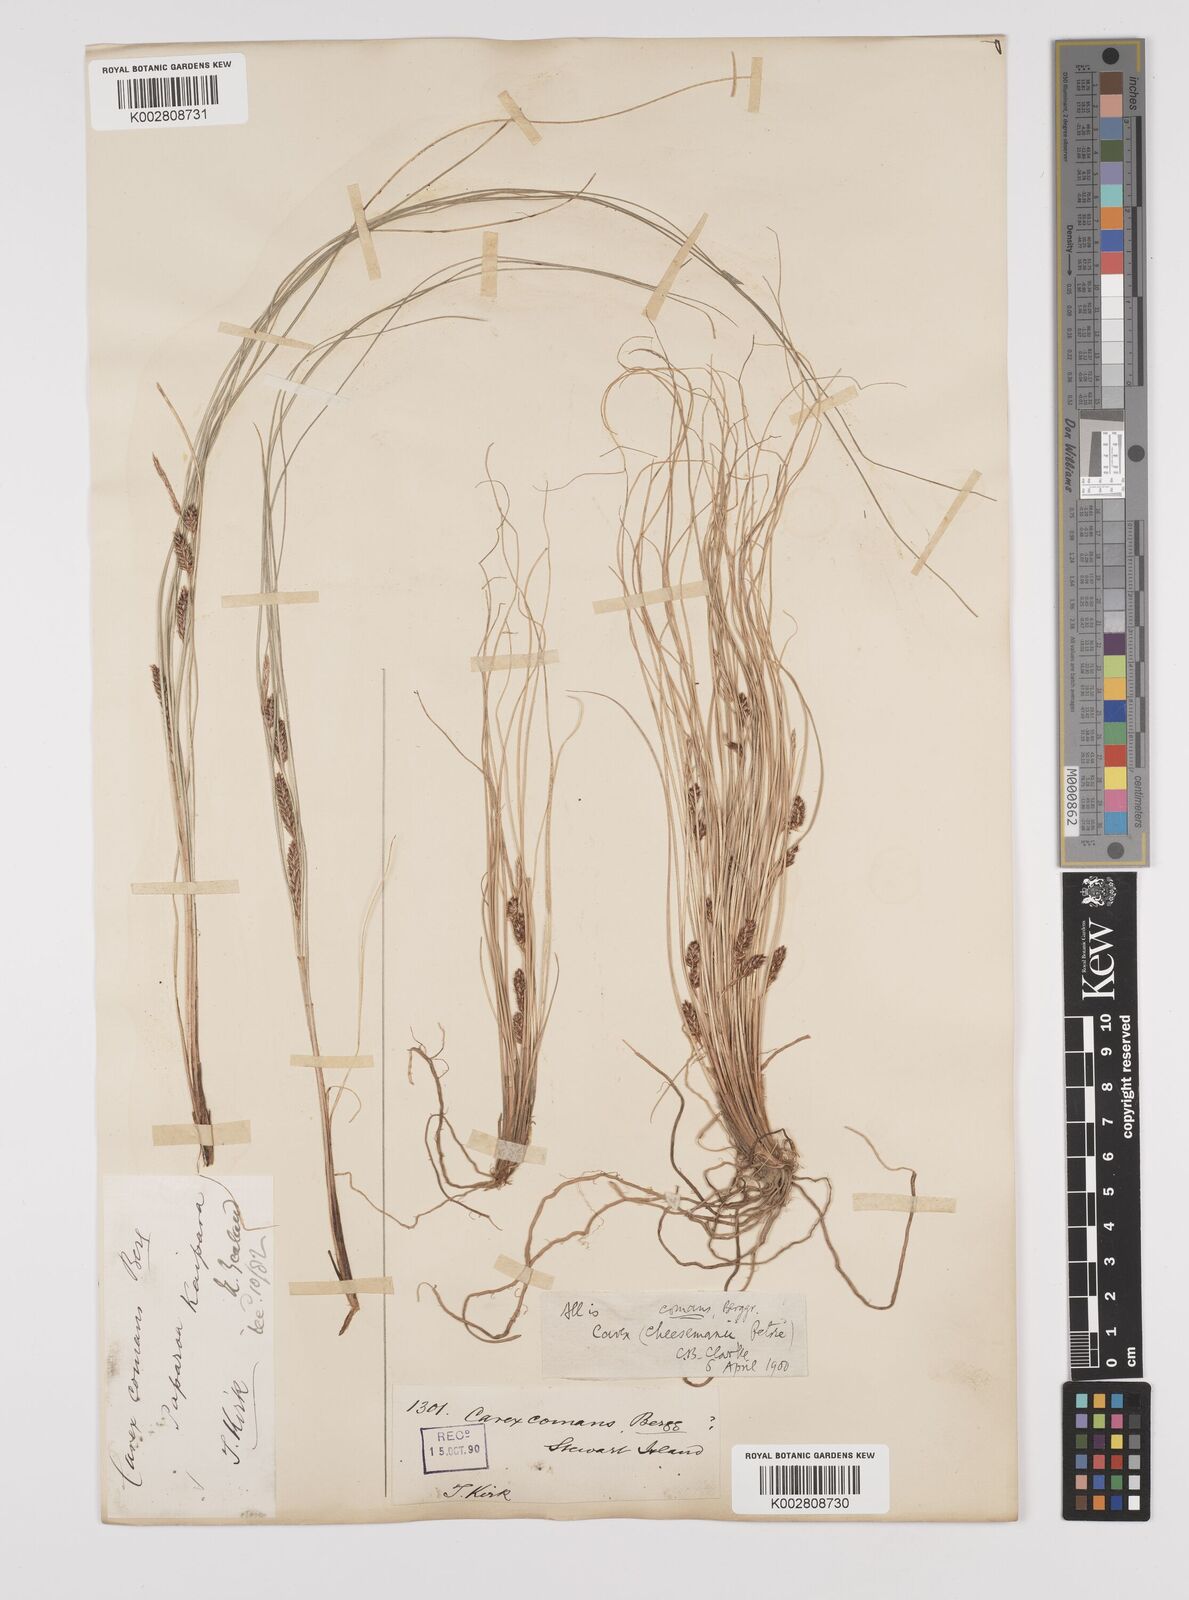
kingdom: Plantae
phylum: Tracheophyta
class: Liliopsida
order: Poales
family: Cyperaceae
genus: Carex
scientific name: Carex comans
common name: Longwood tussock
